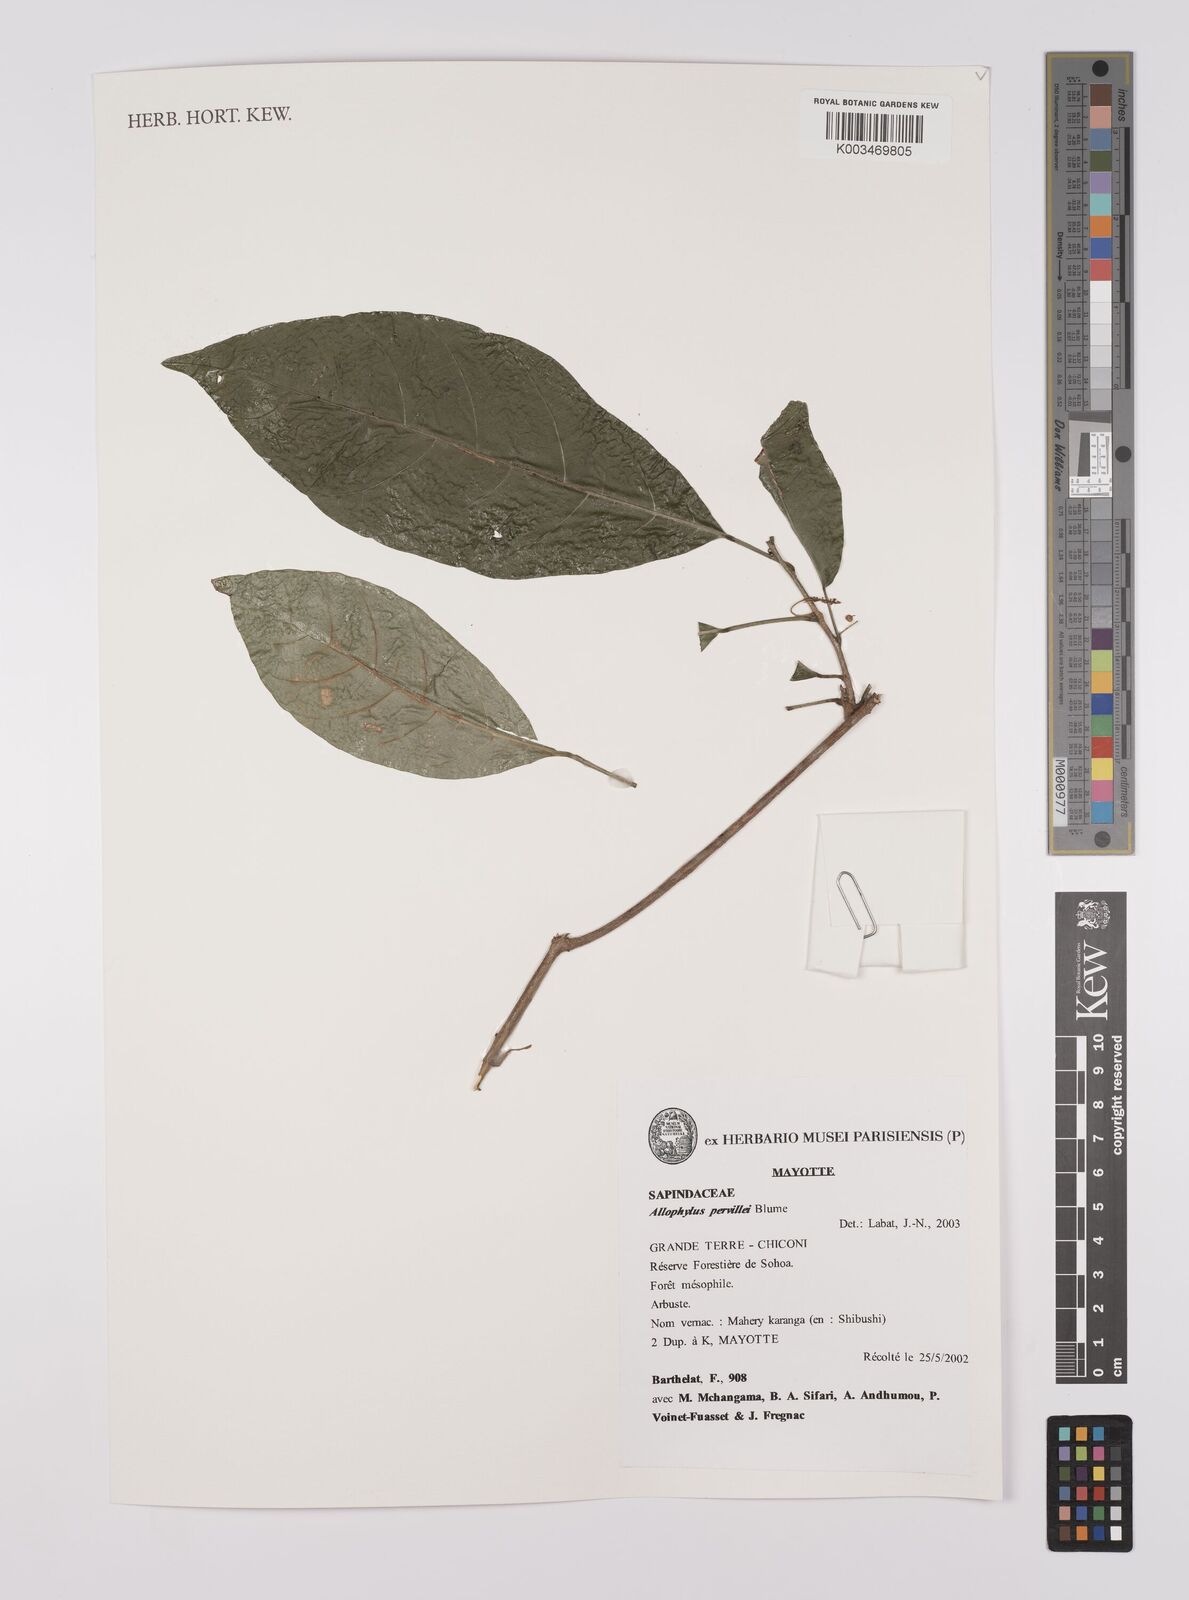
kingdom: Plantae
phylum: Tracheophyta
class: Magnoliopsida
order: Sapindales
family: Sapindaceae
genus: Allophylus
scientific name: Allophylus pervillei
